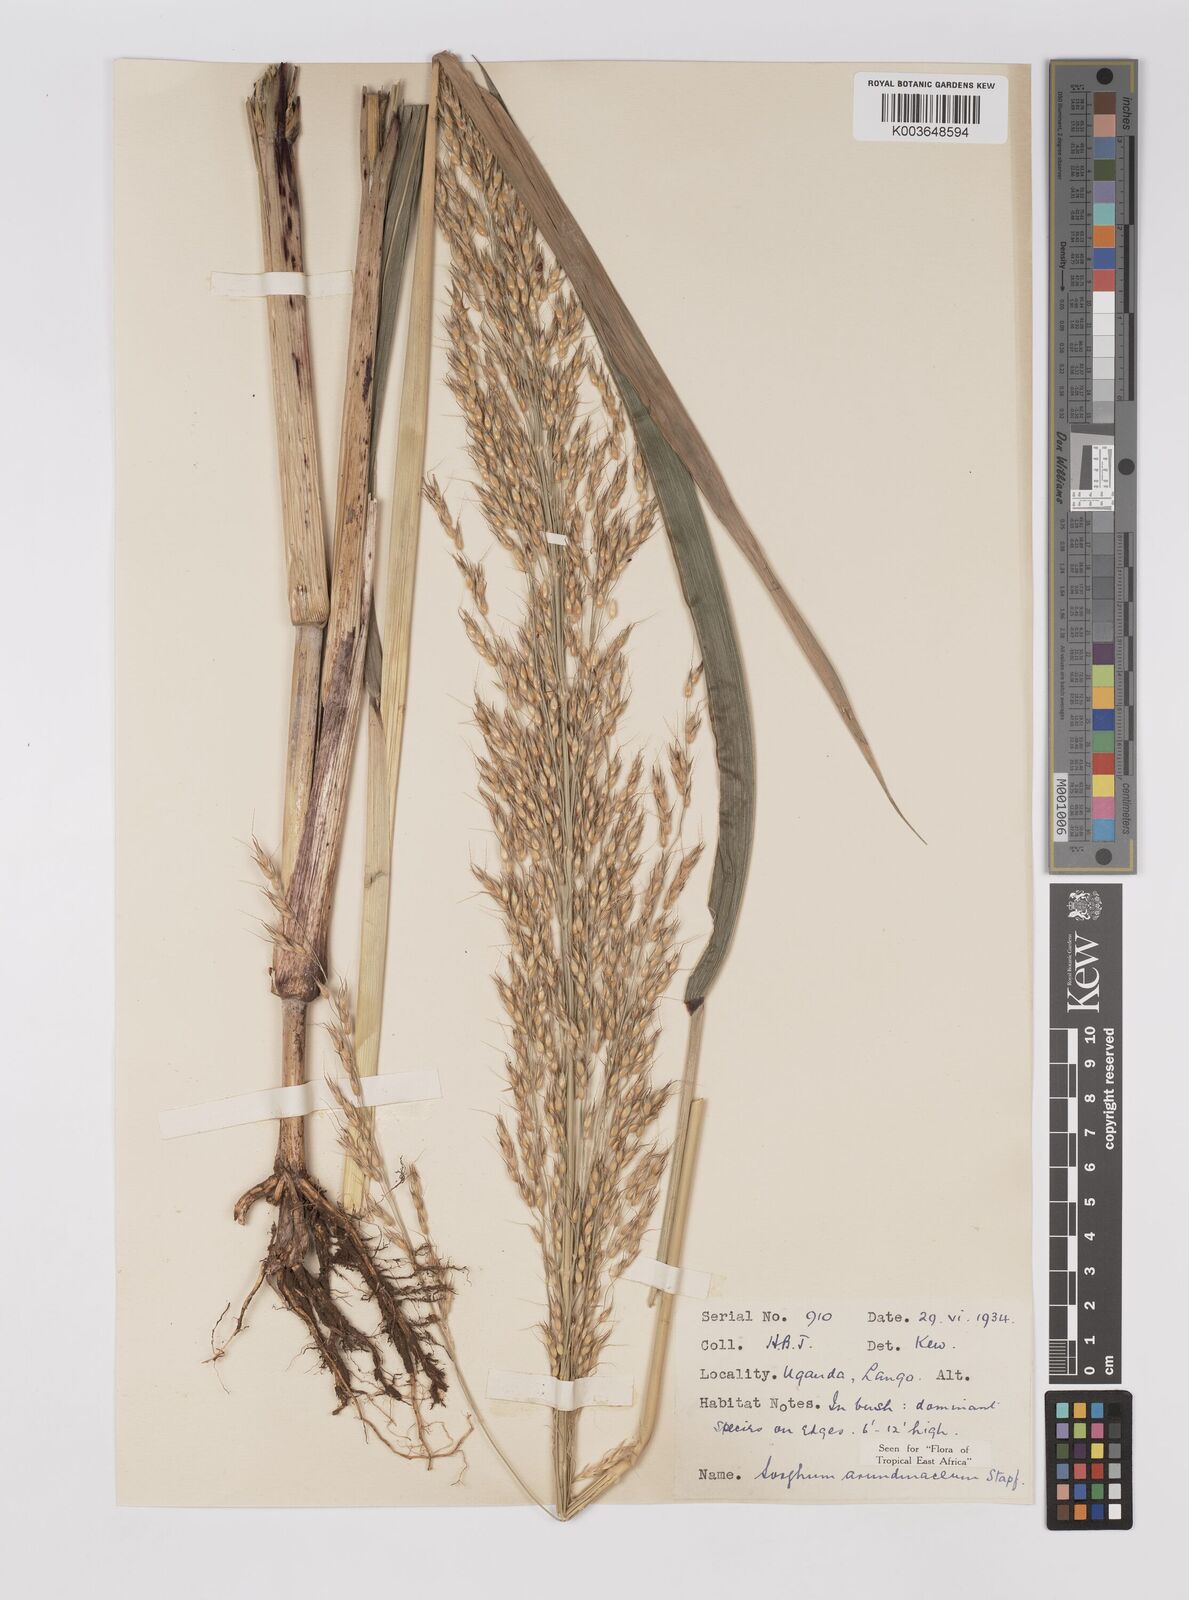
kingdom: Plantae
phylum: Tracheophyta
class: Liliopsida
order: Poales
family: Poaceae
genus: Sorghum
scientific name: Sorghum arundinaceum
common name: Sorghum
